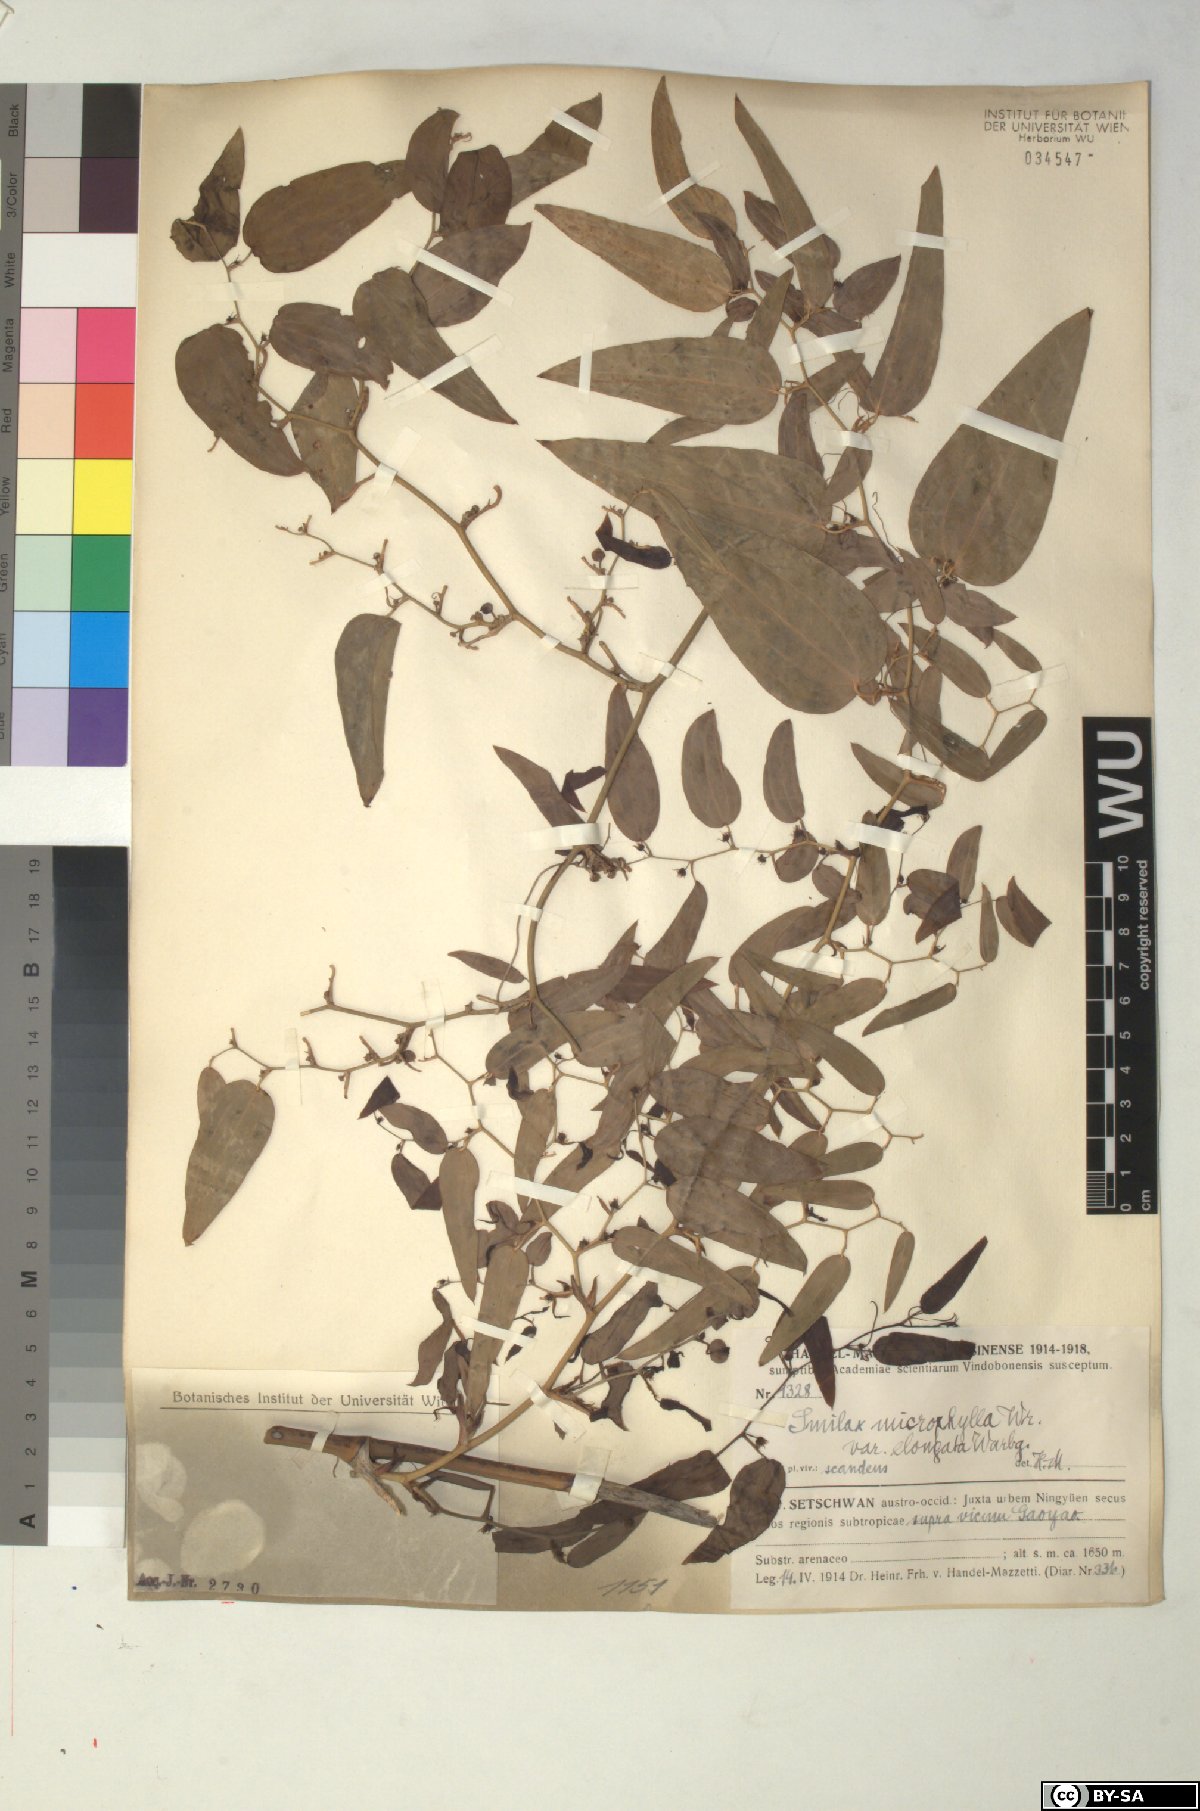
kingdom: Plantae
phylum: Tracheophyta
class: Liliopsida
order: Liliales
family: Smilacaceae
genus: Smilax
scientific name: Smilax lanceifolia
